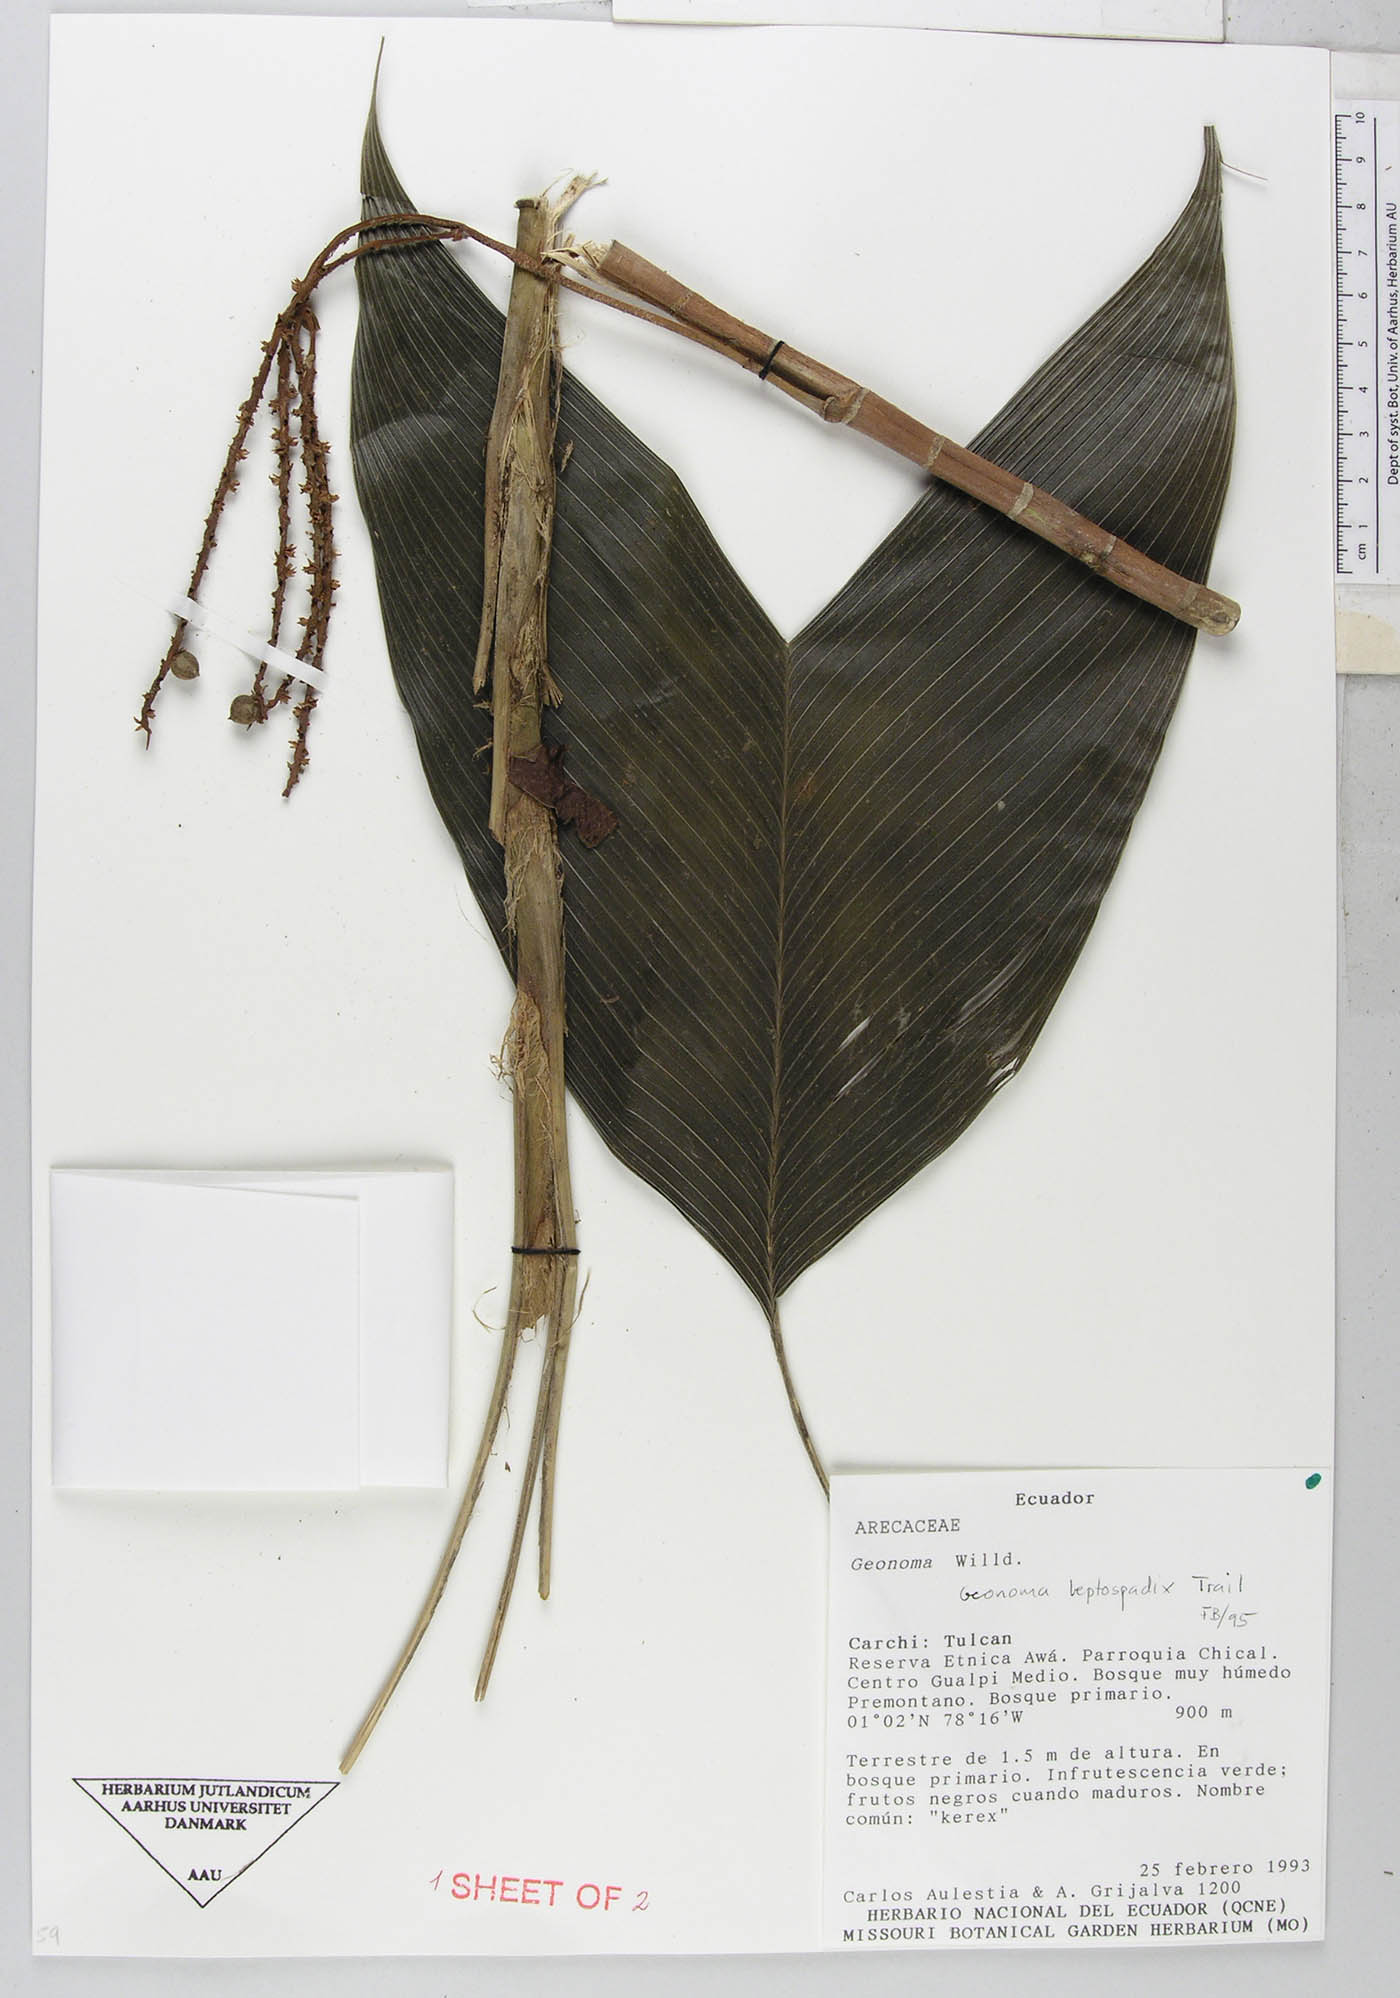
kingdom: Plantae
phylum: Tracheophyta
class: Liliopsida
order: Arecales
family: Arecaceae
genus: Geonoma
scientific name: Geonoma lanata
